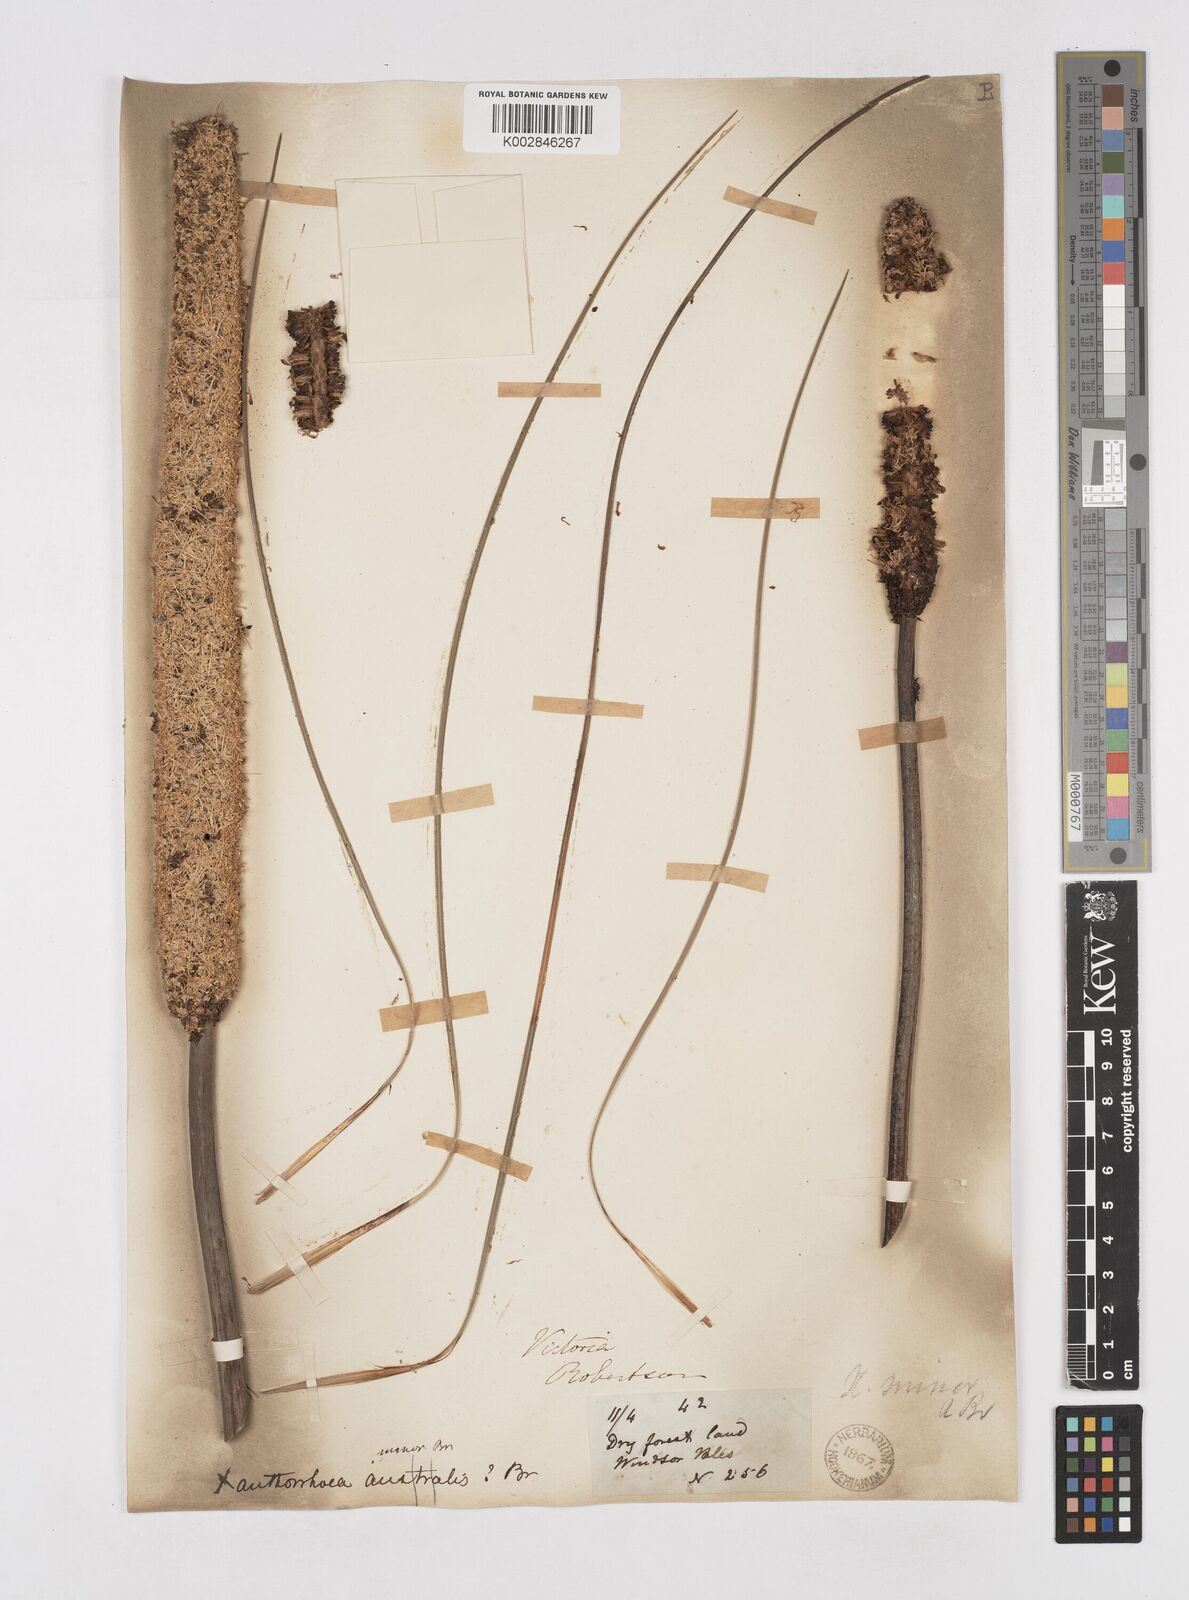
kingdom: Plantae
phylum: Tracheophyta
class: Liliopsida
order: Asparagales
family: Asphodelaceae
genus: Xanthorrhoea
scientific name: Xanthorrhoea minor
